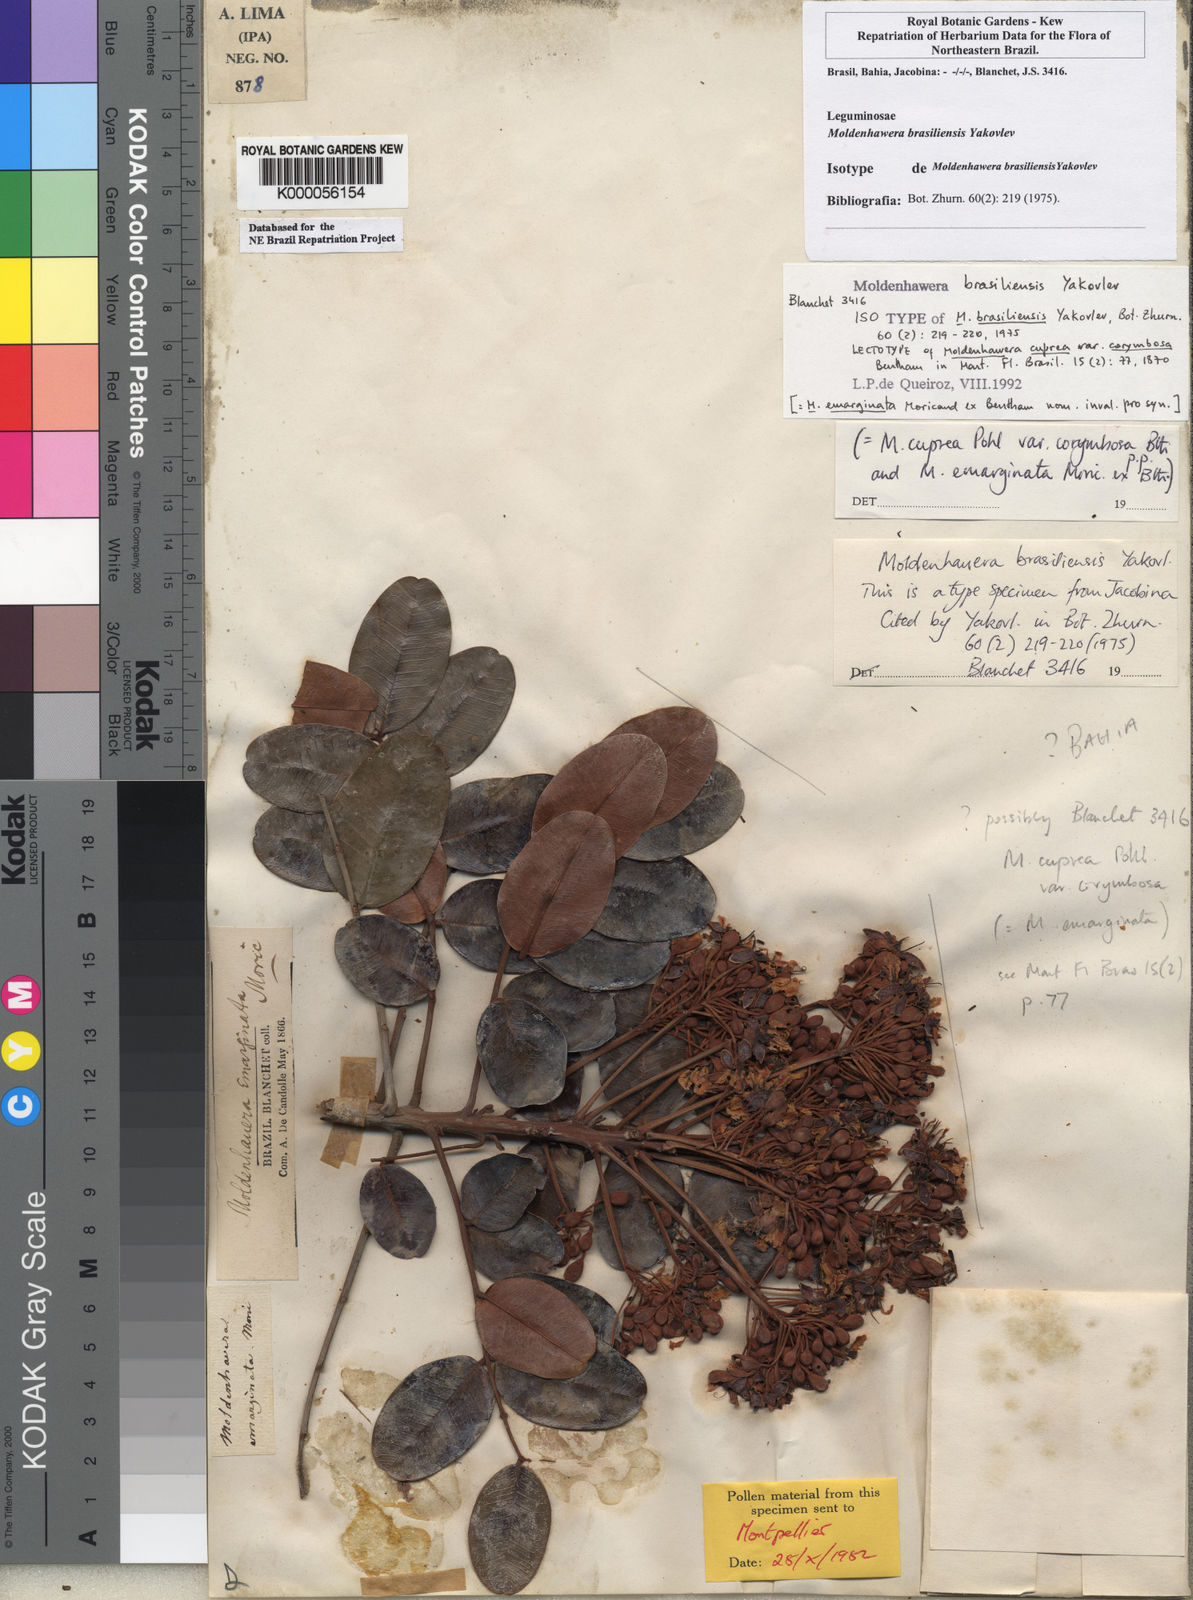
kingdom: Plantae
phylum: Tracheophyta
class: Magnoliopsida
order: Fabales
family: Fabaceae
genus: Moldenhawera
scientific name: Moldenhawera brasiliensis
